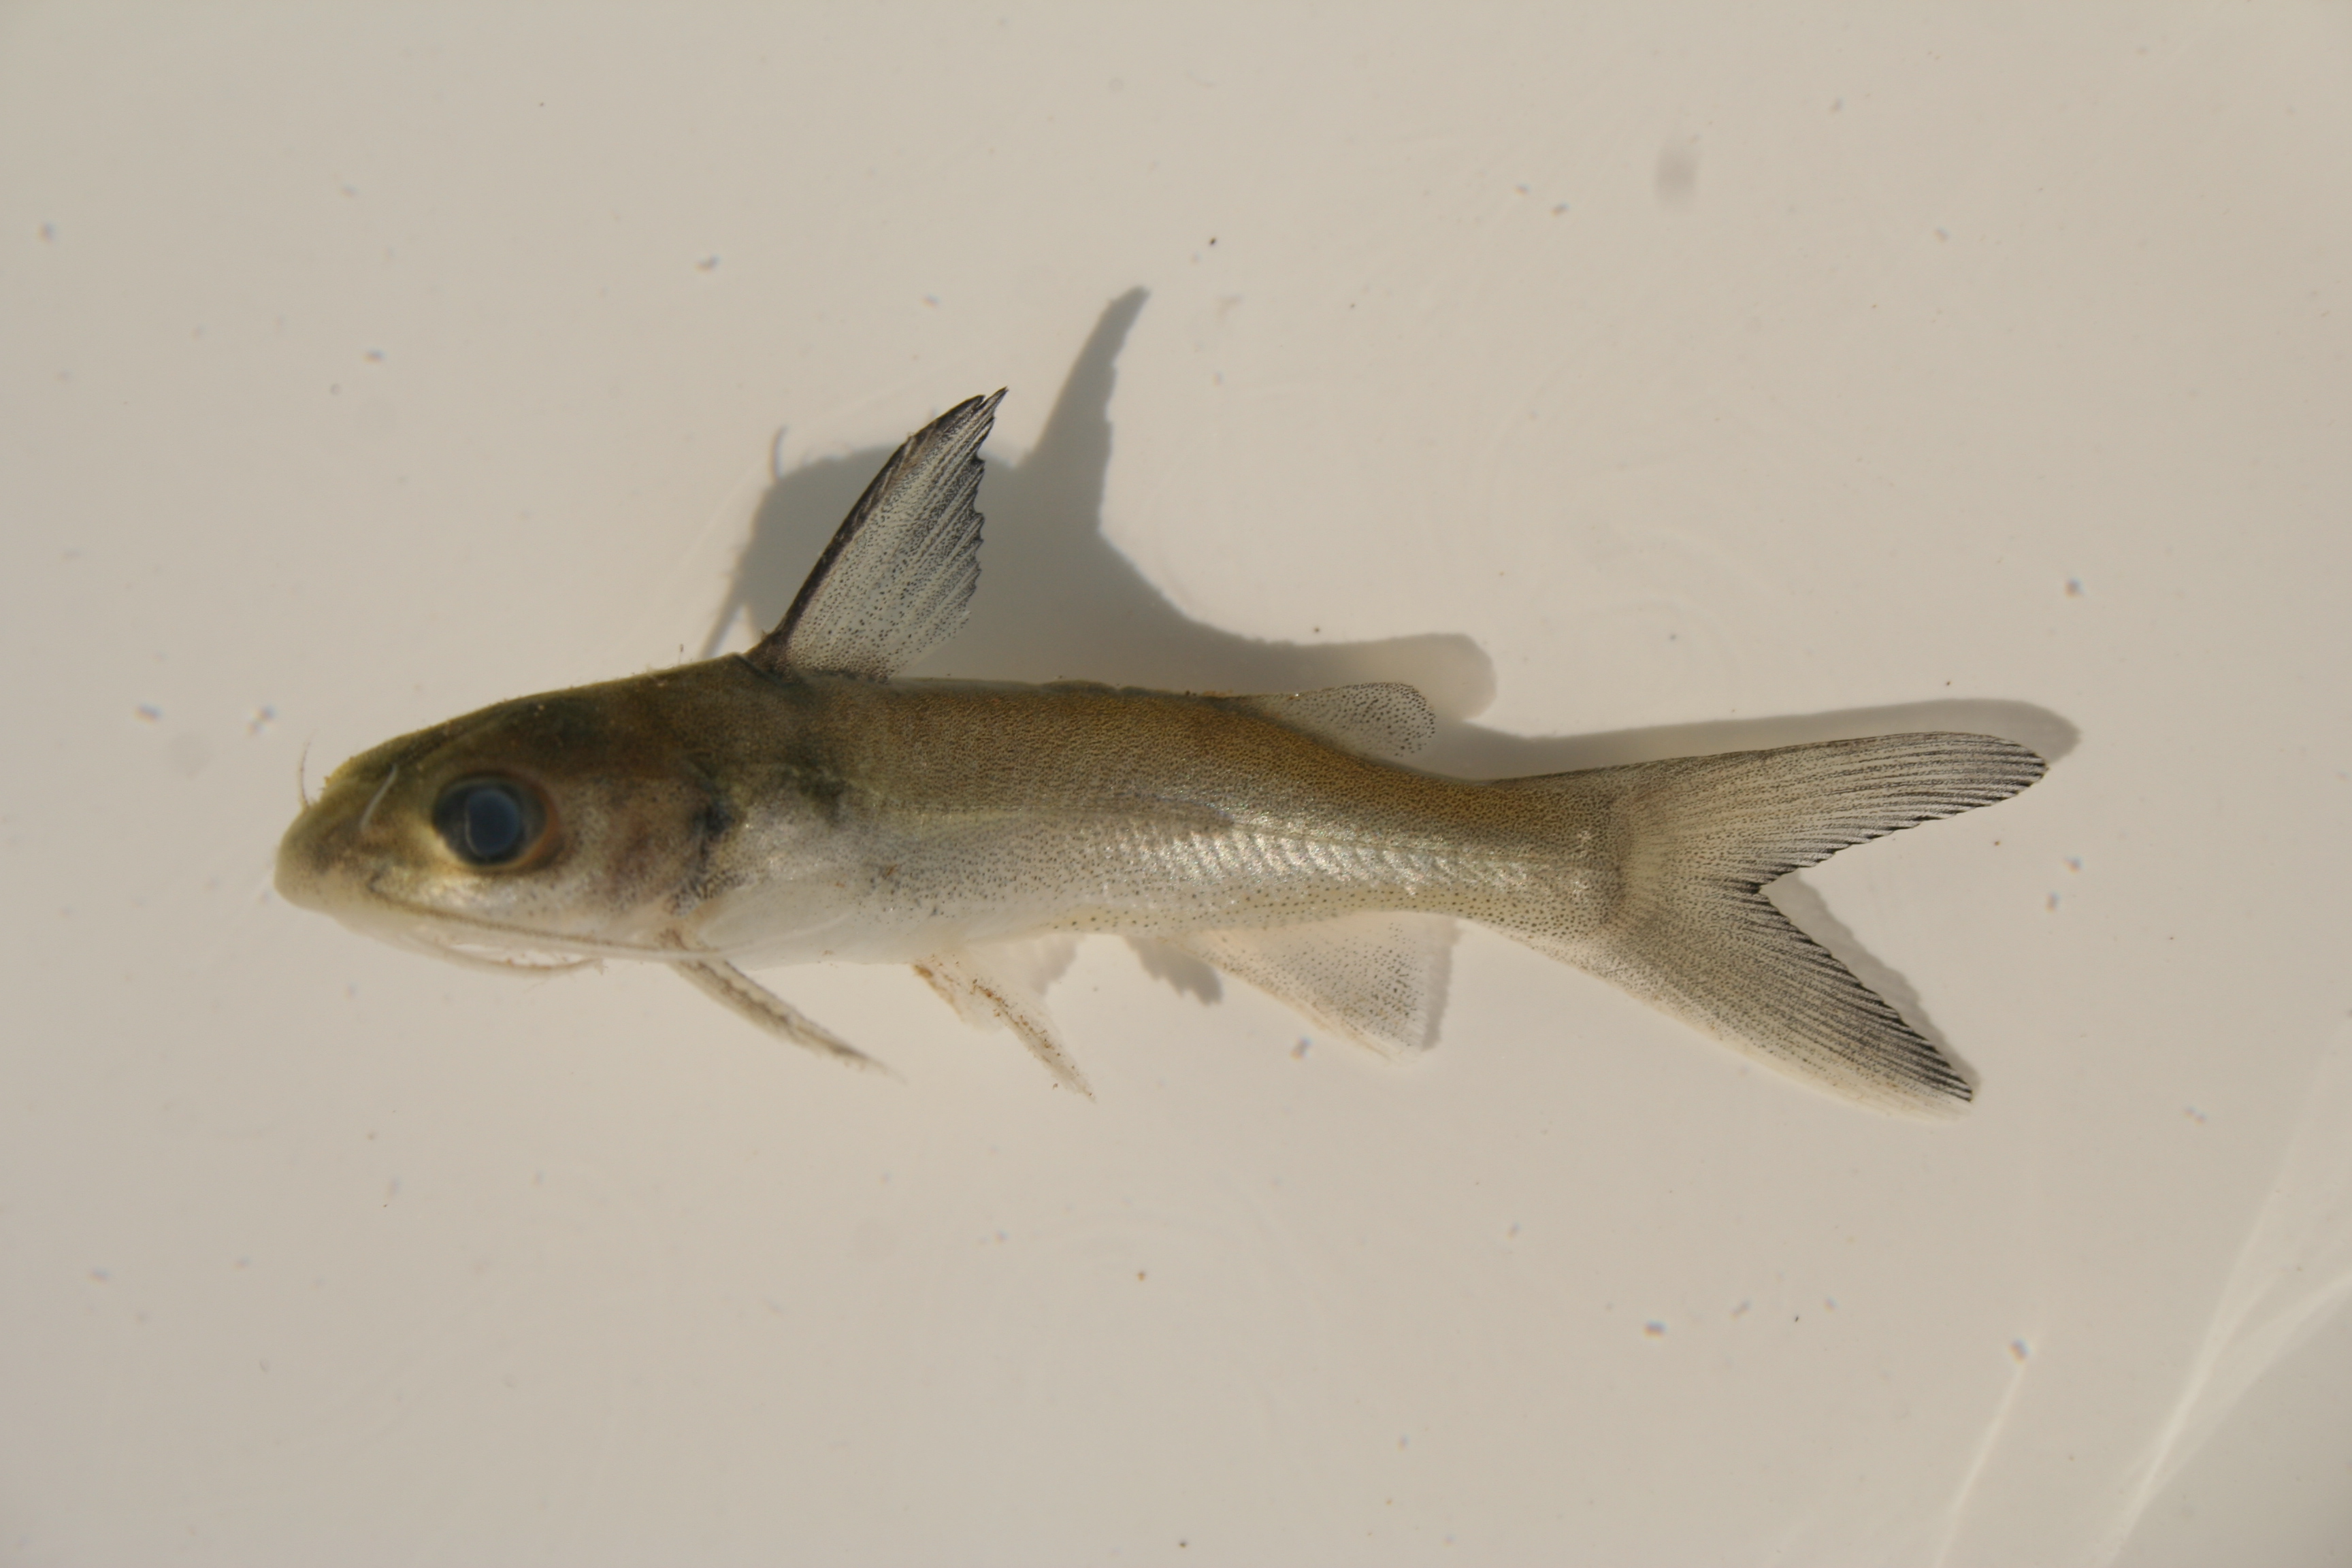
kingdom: Animalia
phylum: Chordata
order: Siluriformes
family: Claroteidae
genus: Chrysichthys
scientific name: Chrysichthys bocagii
